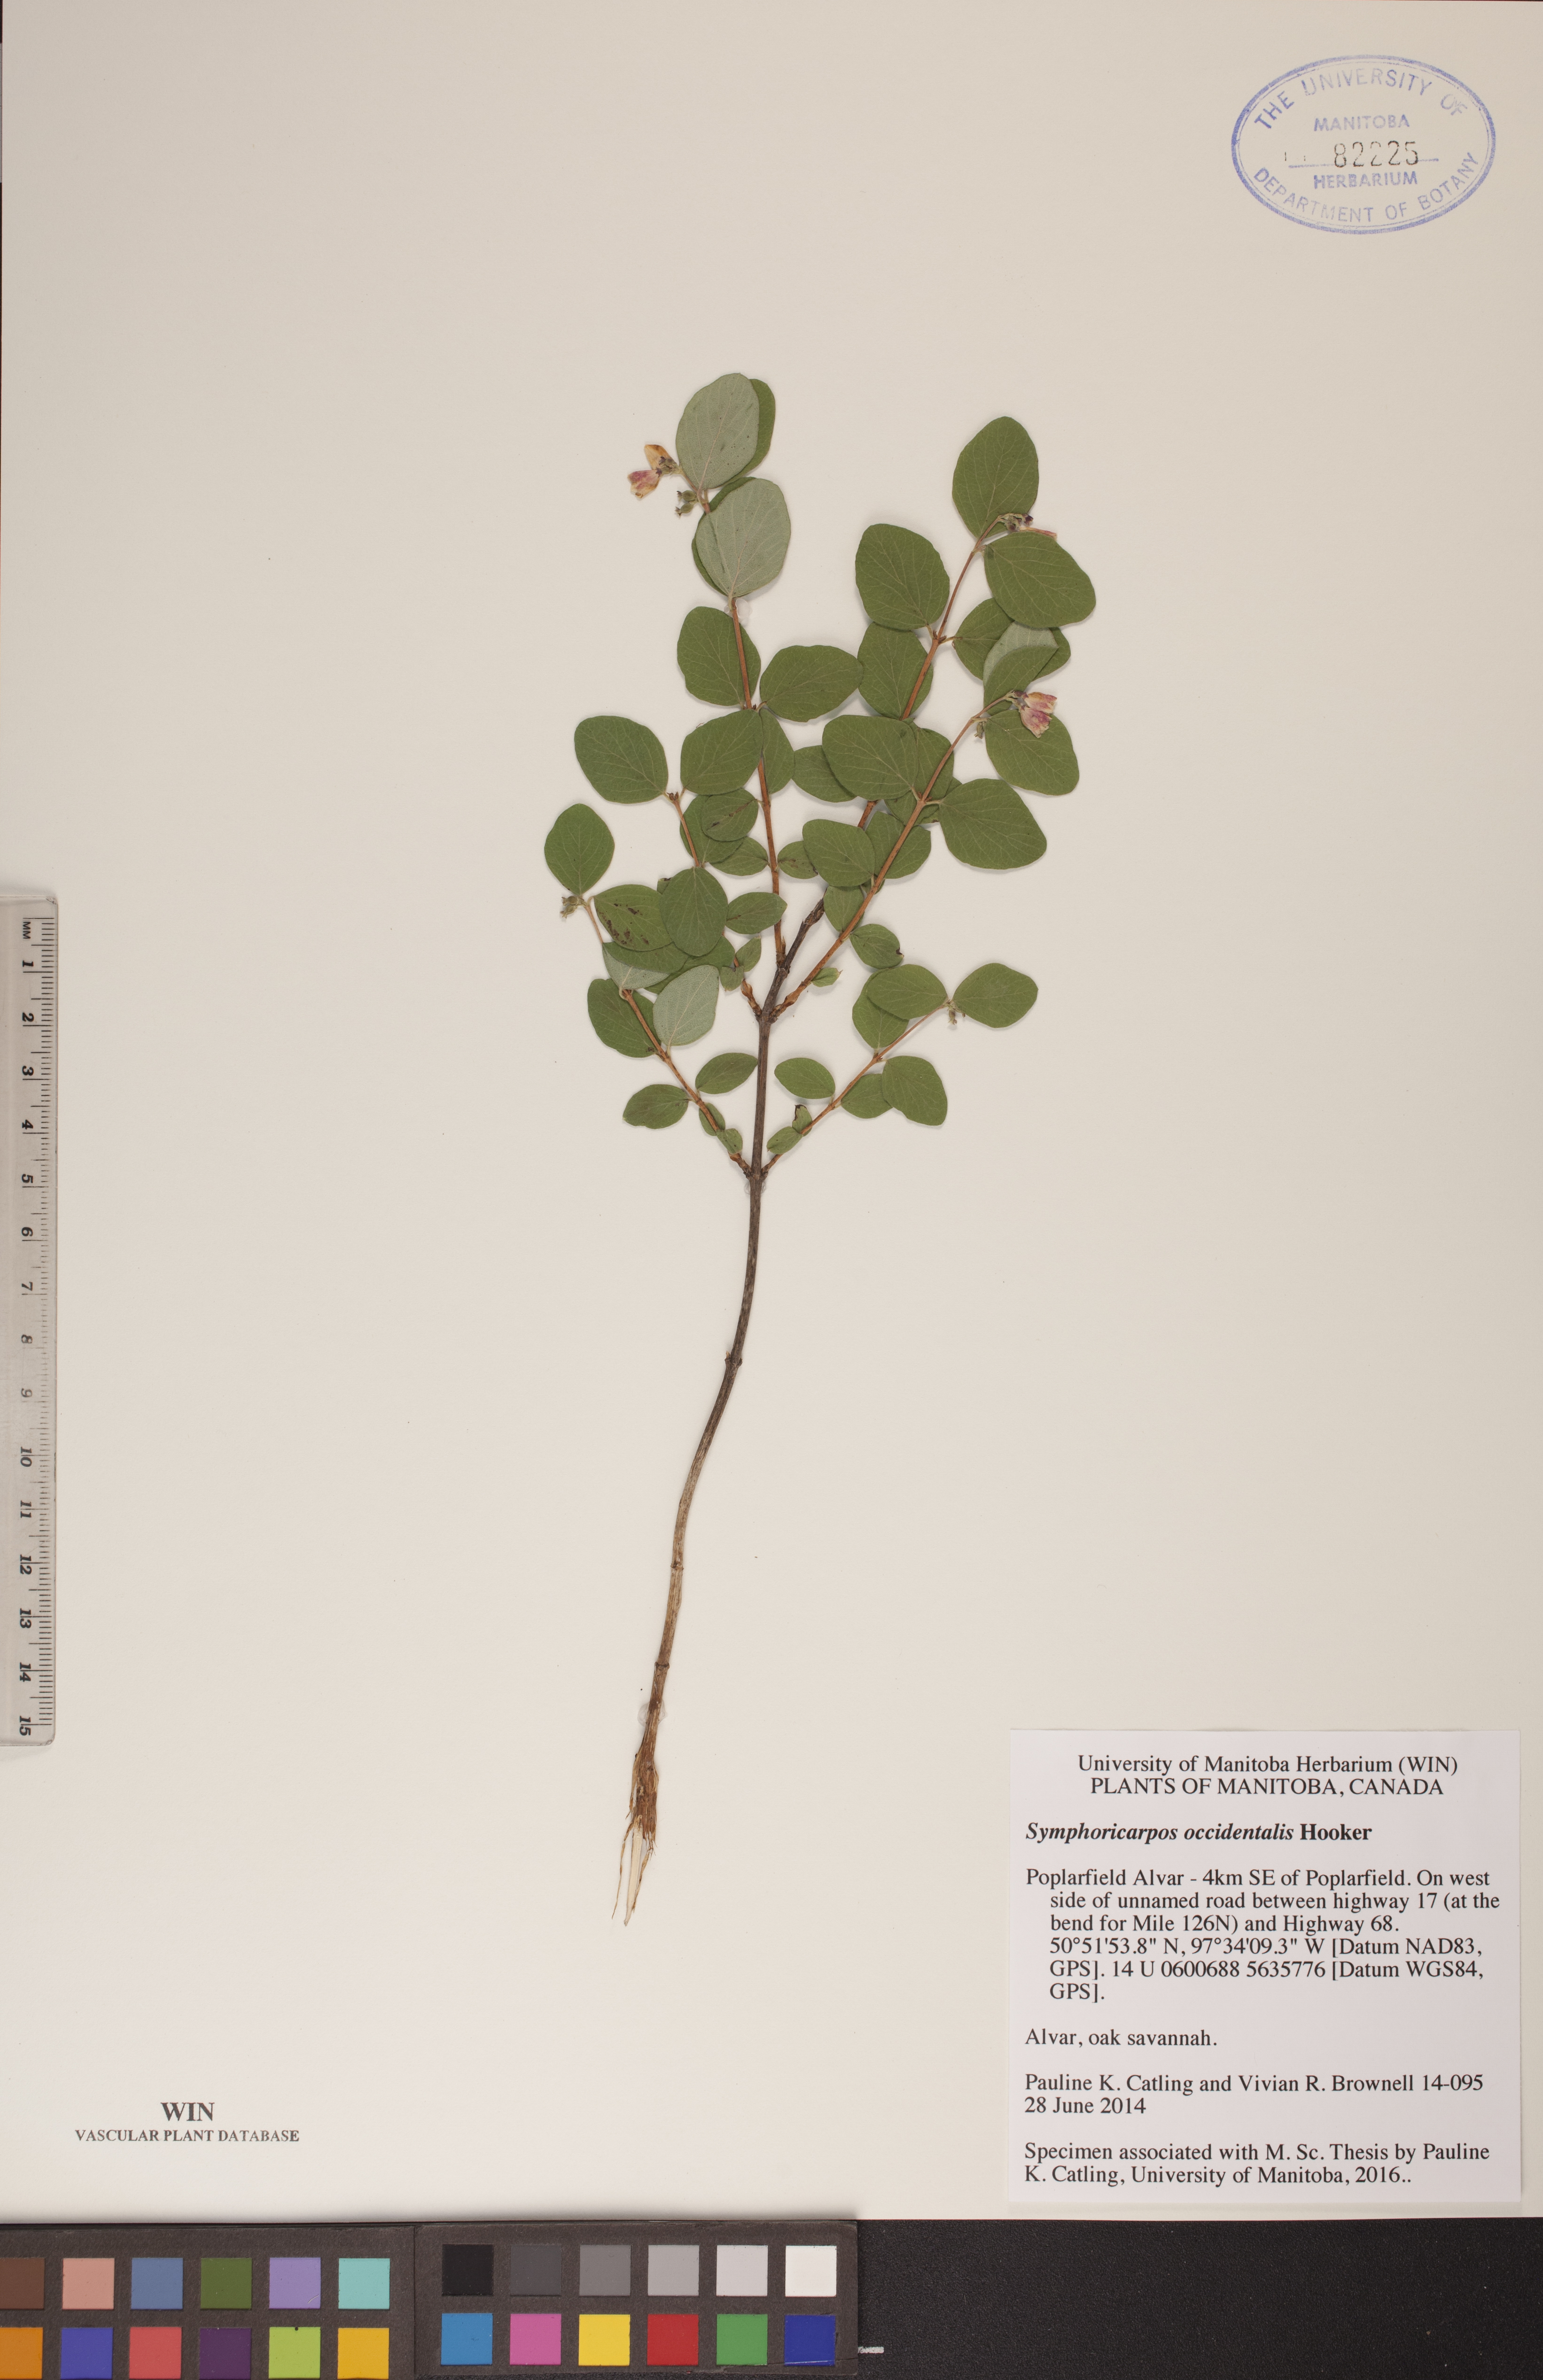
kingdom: Plantae
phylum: Tracheophyta
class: Magnoliopsida
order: Dipsacales
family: Caprifoliaceae
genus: Symphoricarpos
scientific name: Symphoricarpos occidentalis
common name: Wolfberry
